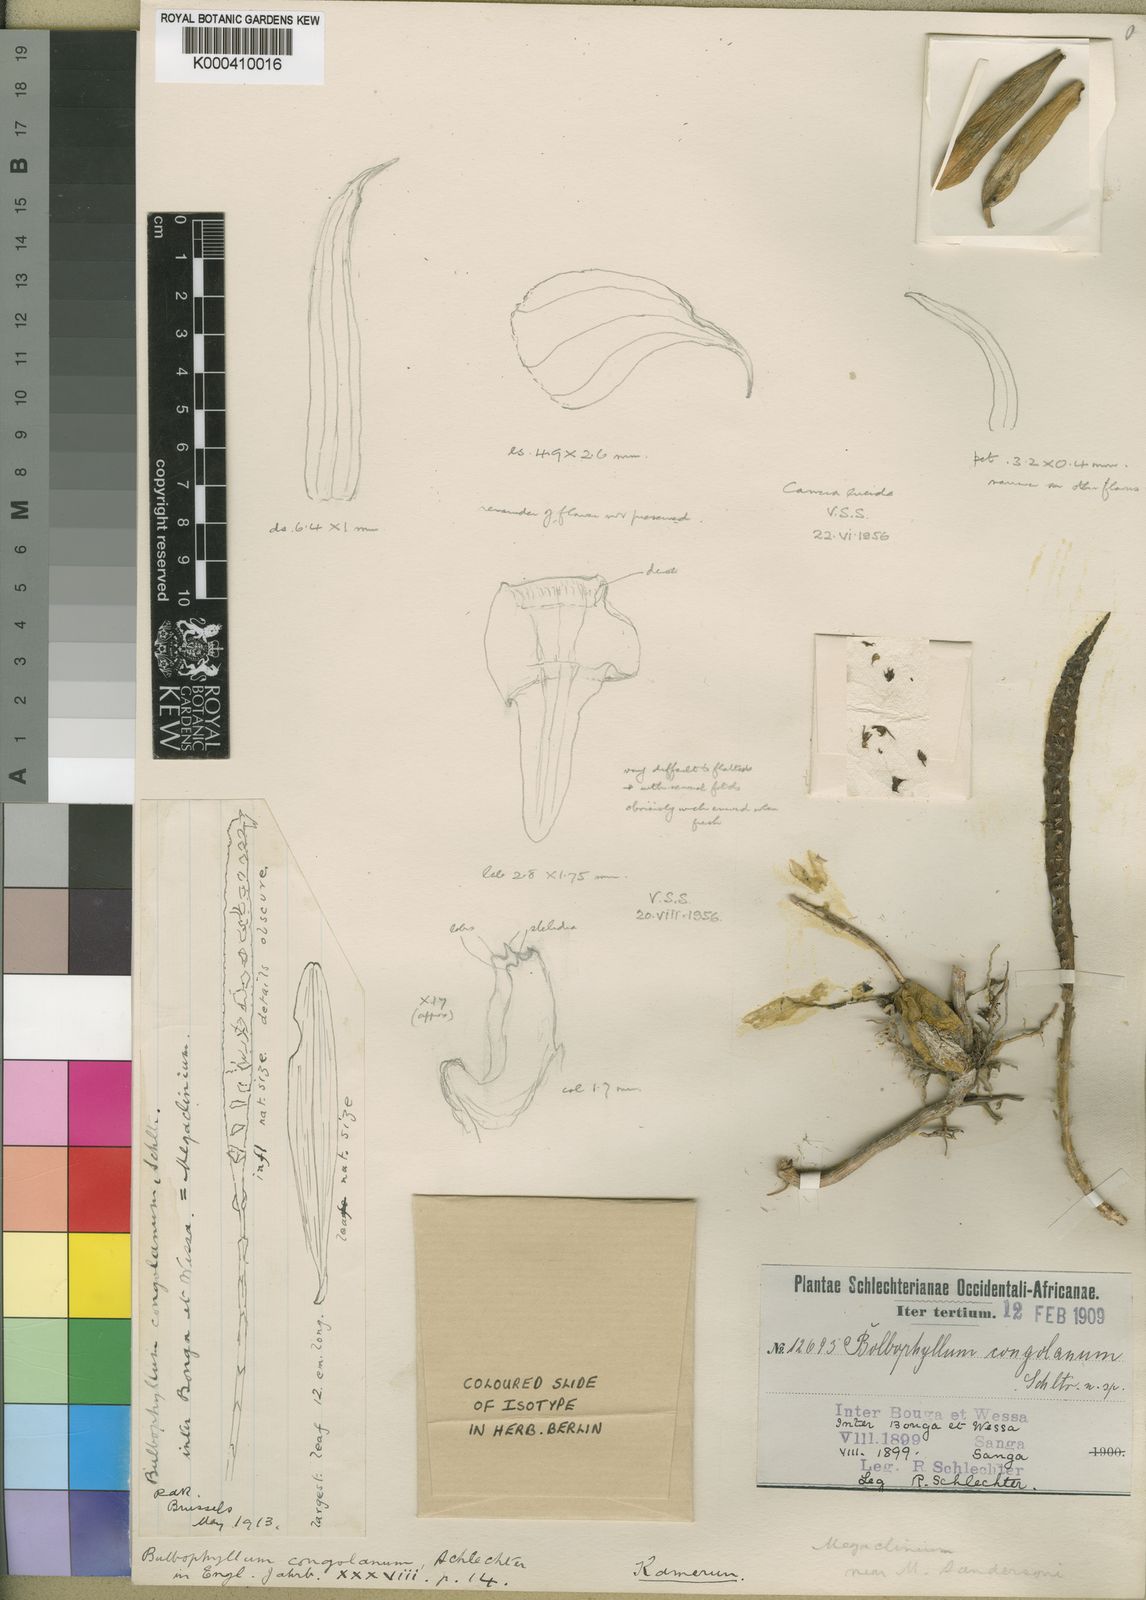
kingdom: Plantae
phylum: Tracheophyta
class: Liliopsida
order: Asparagales
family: Orchidaceae
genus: Bulbophyllum
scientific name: Bulbophyllum scaberulum
